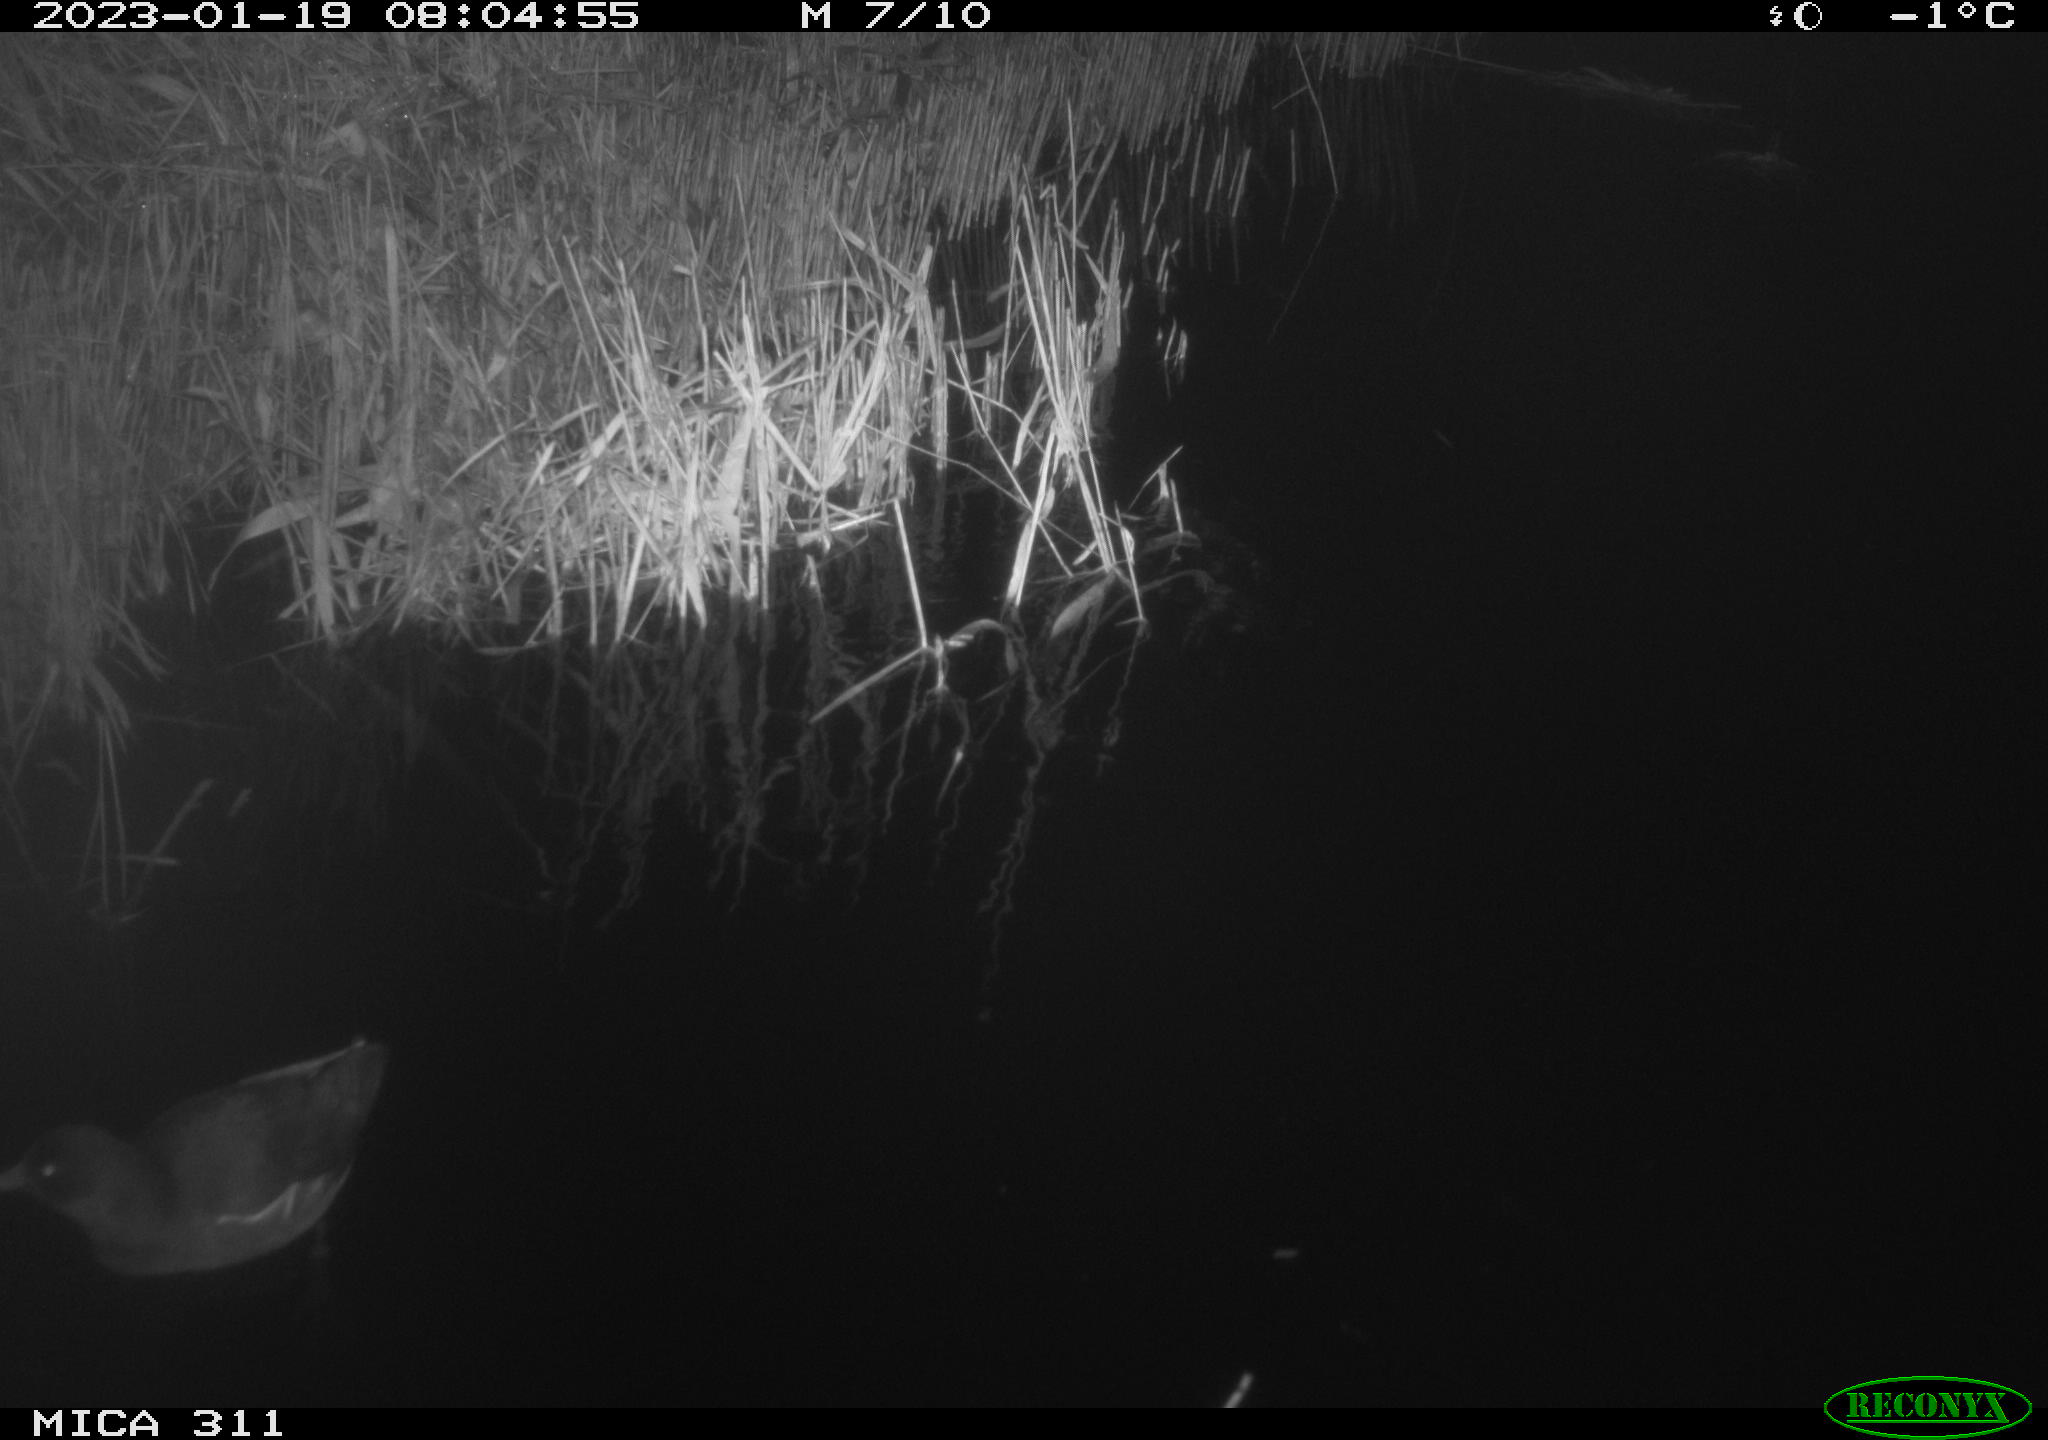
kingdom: Animalia
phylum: Chordata
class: Aves
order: Gruiformes
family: Rallidae
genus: Gallinula
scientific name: Gallinula chloropus
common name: Common moorhen
